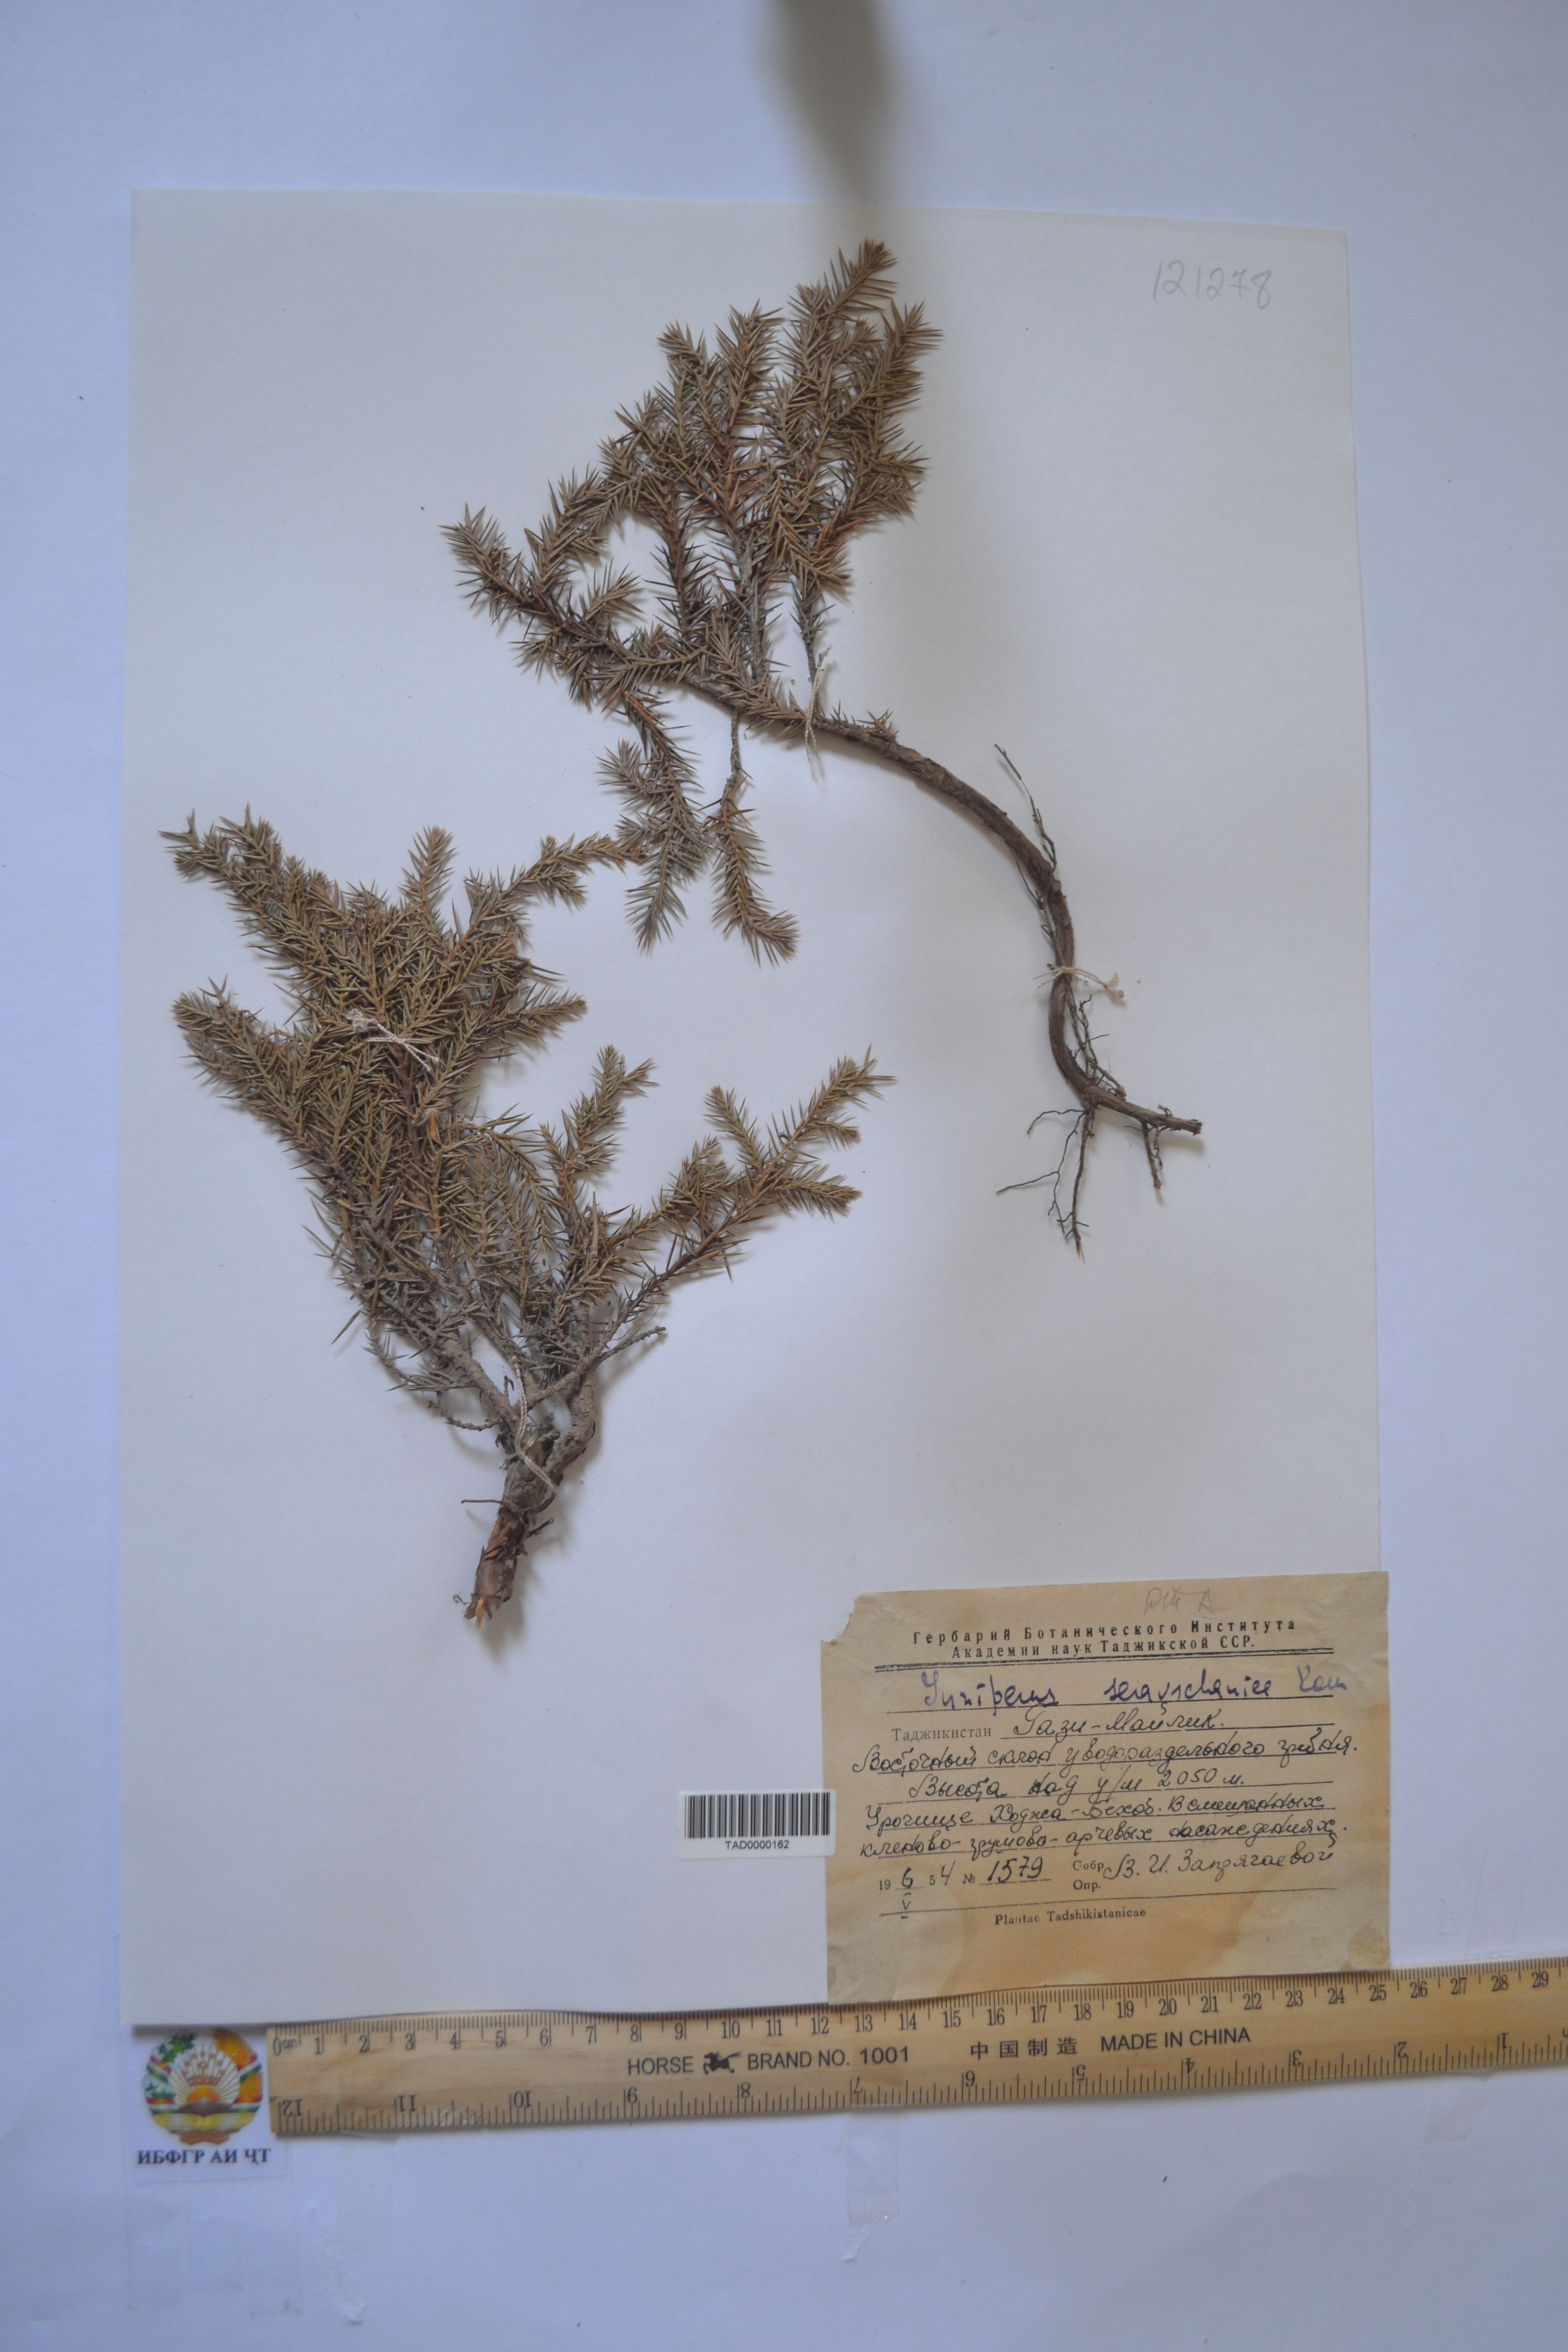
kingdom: Plantae
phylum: Tracheophyta
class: Pinopsida
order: Pinales
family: Cupressaceae
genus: Juniperus
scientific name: Juniperus excelsa
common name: Crimean juniper
